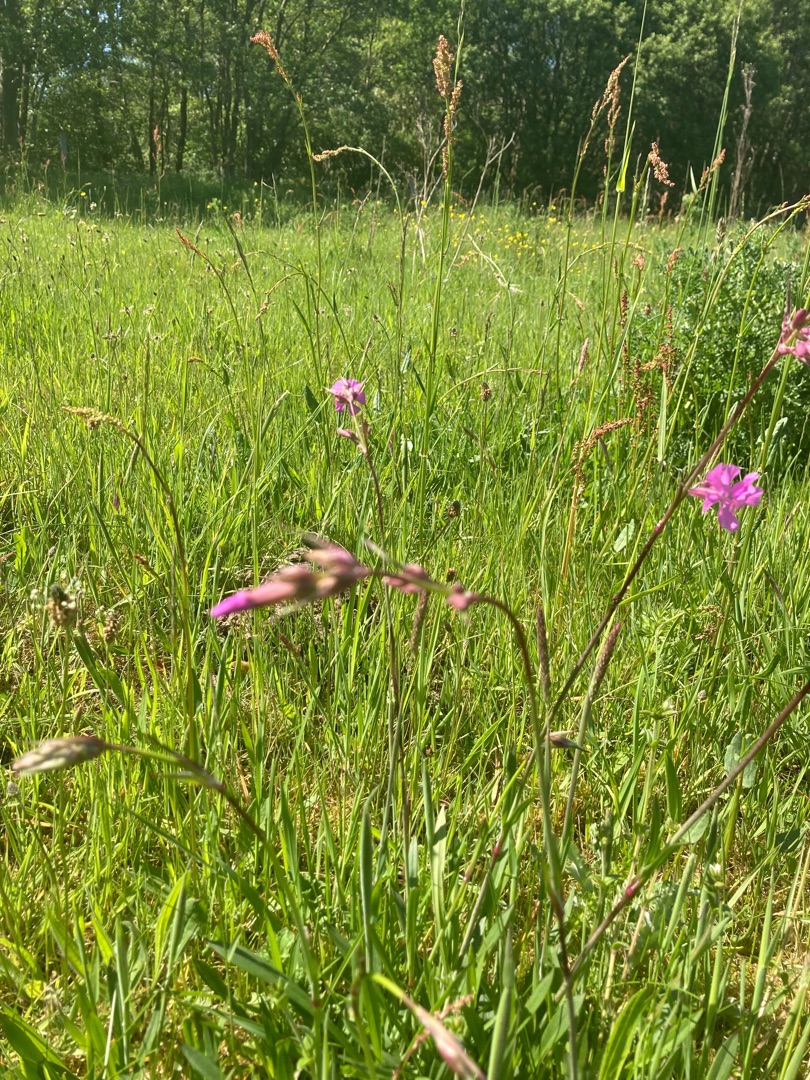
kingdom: Plantae
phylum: Tracheophyta
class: Magnoliopsida
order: Caryophyllales
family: Caryophyllaceae
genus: Viscaria
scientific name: Viscaria vulgaris
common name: Tjærenellike
